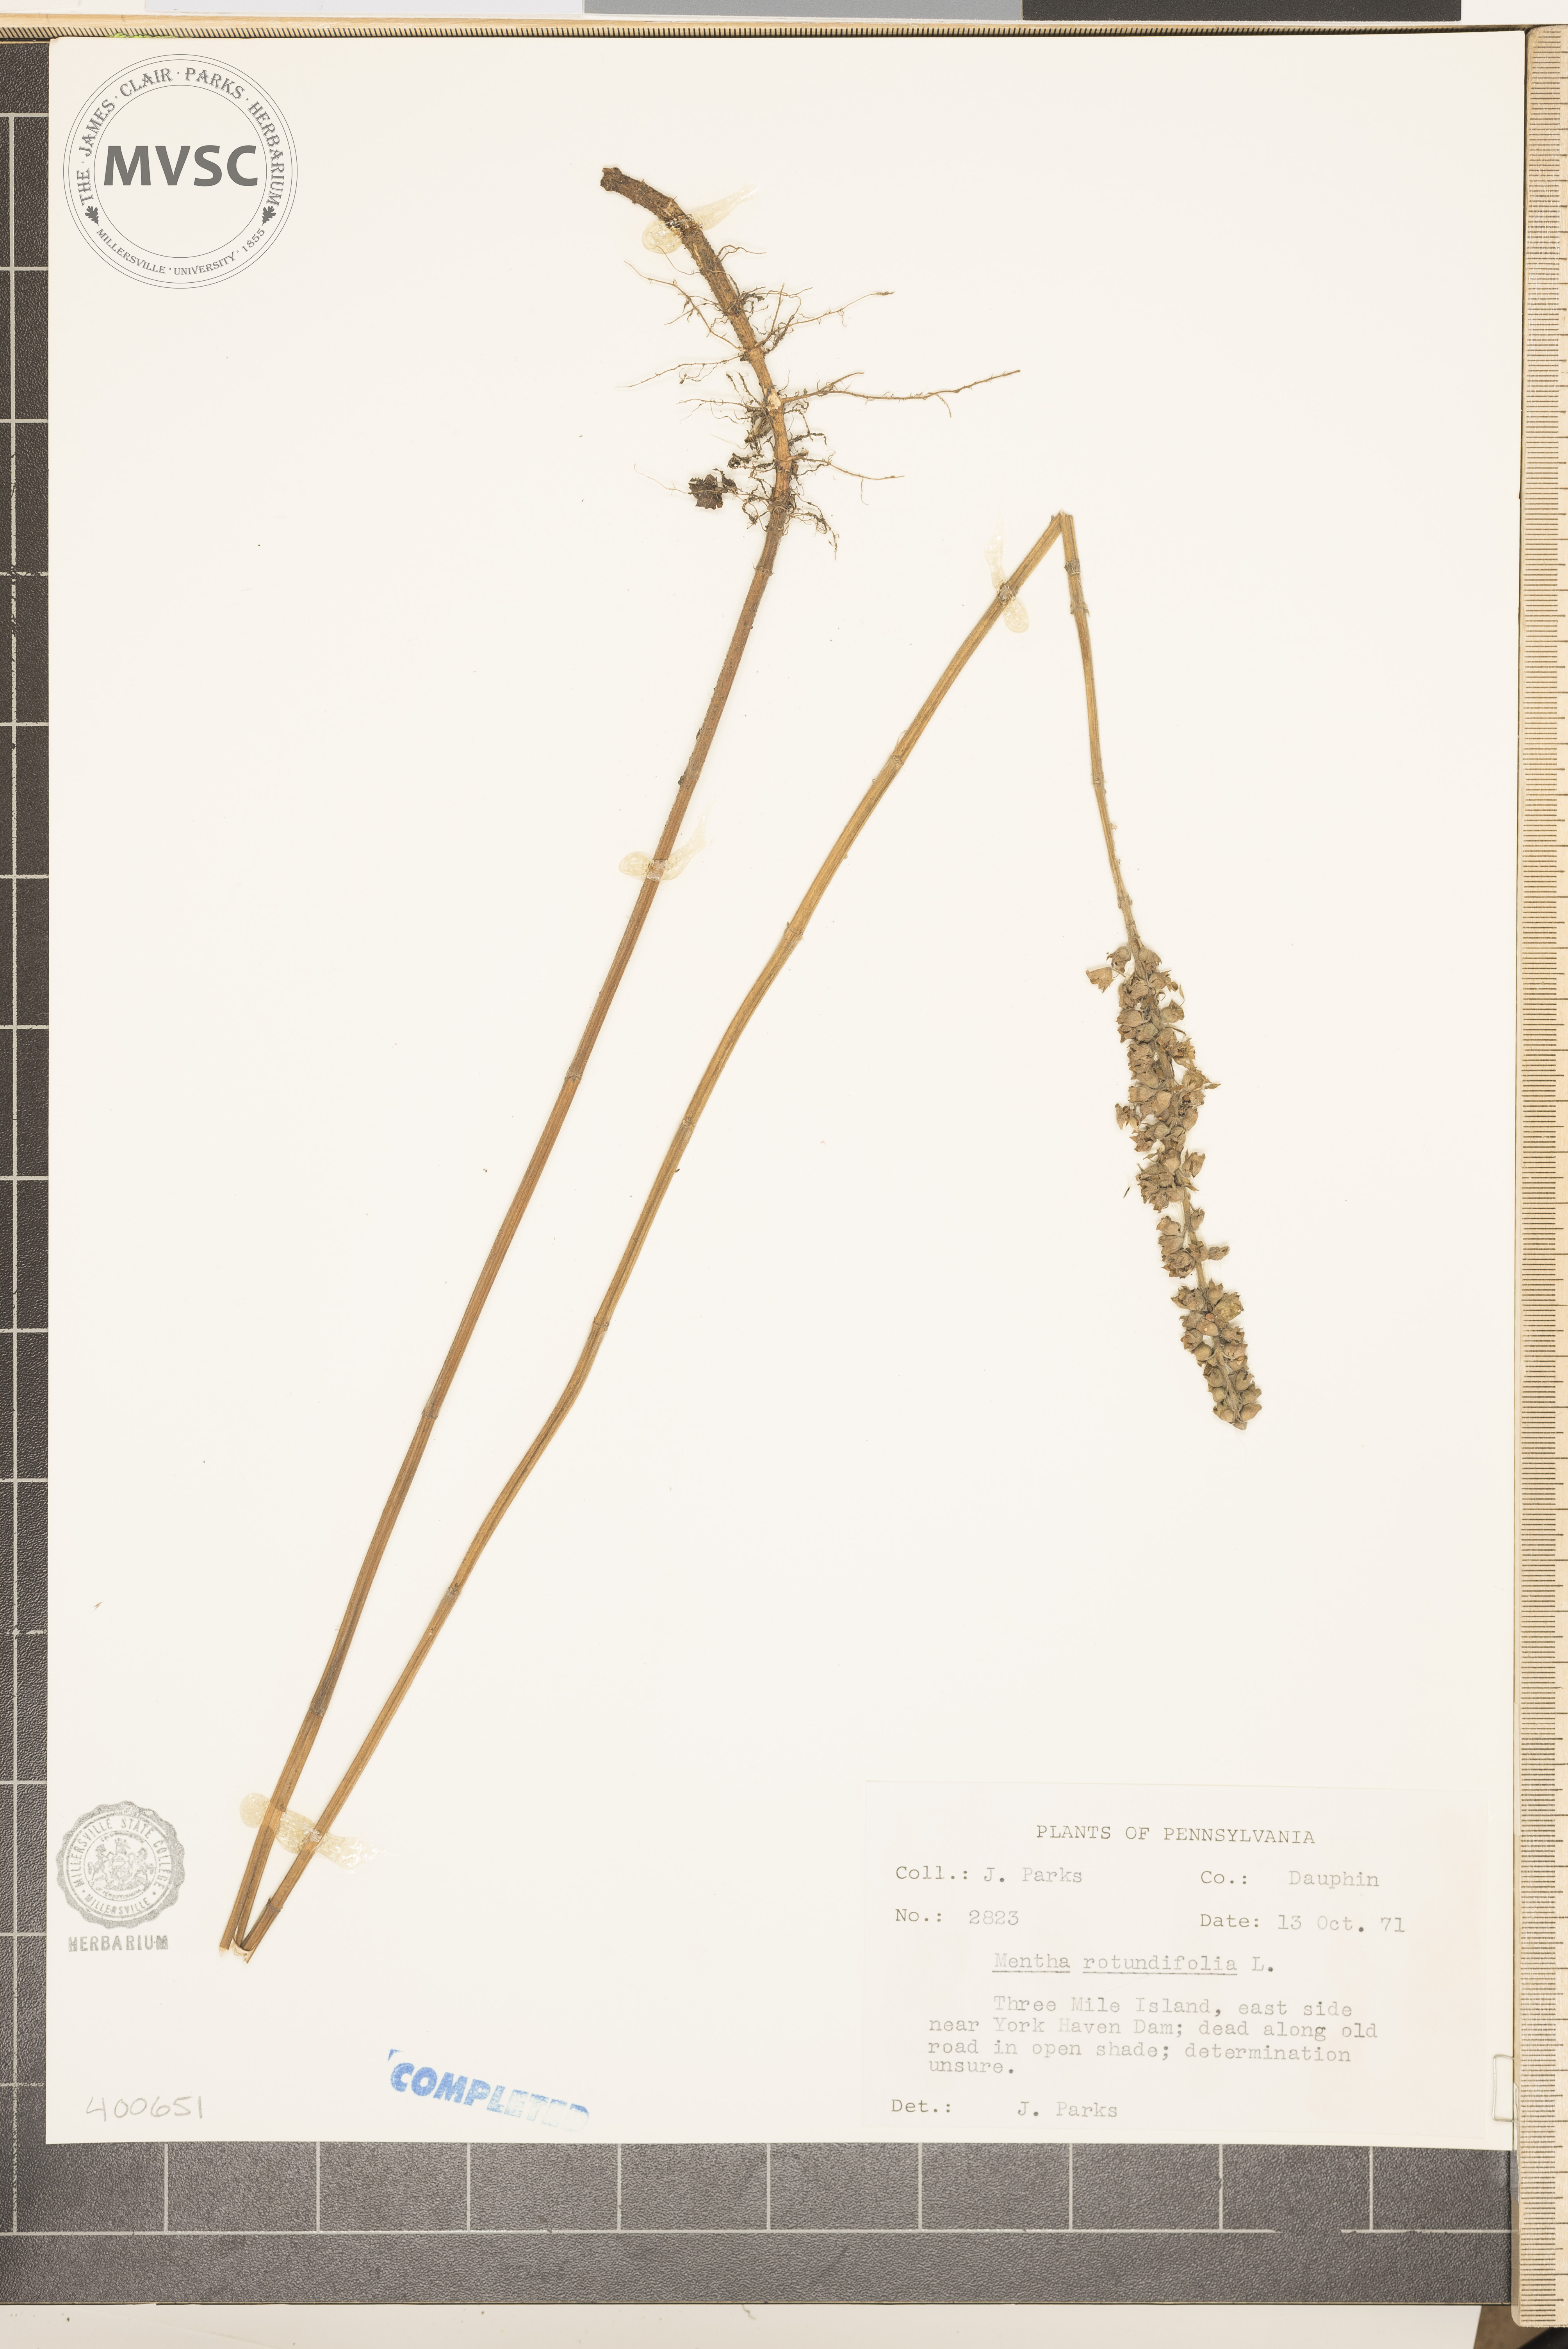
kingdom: Plantae
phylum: Tracheophyta
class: Magnoliopsida
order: Lamiales
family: Lamiaceae
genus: Mentha
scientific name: Mentha rotundifolia
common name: mint
